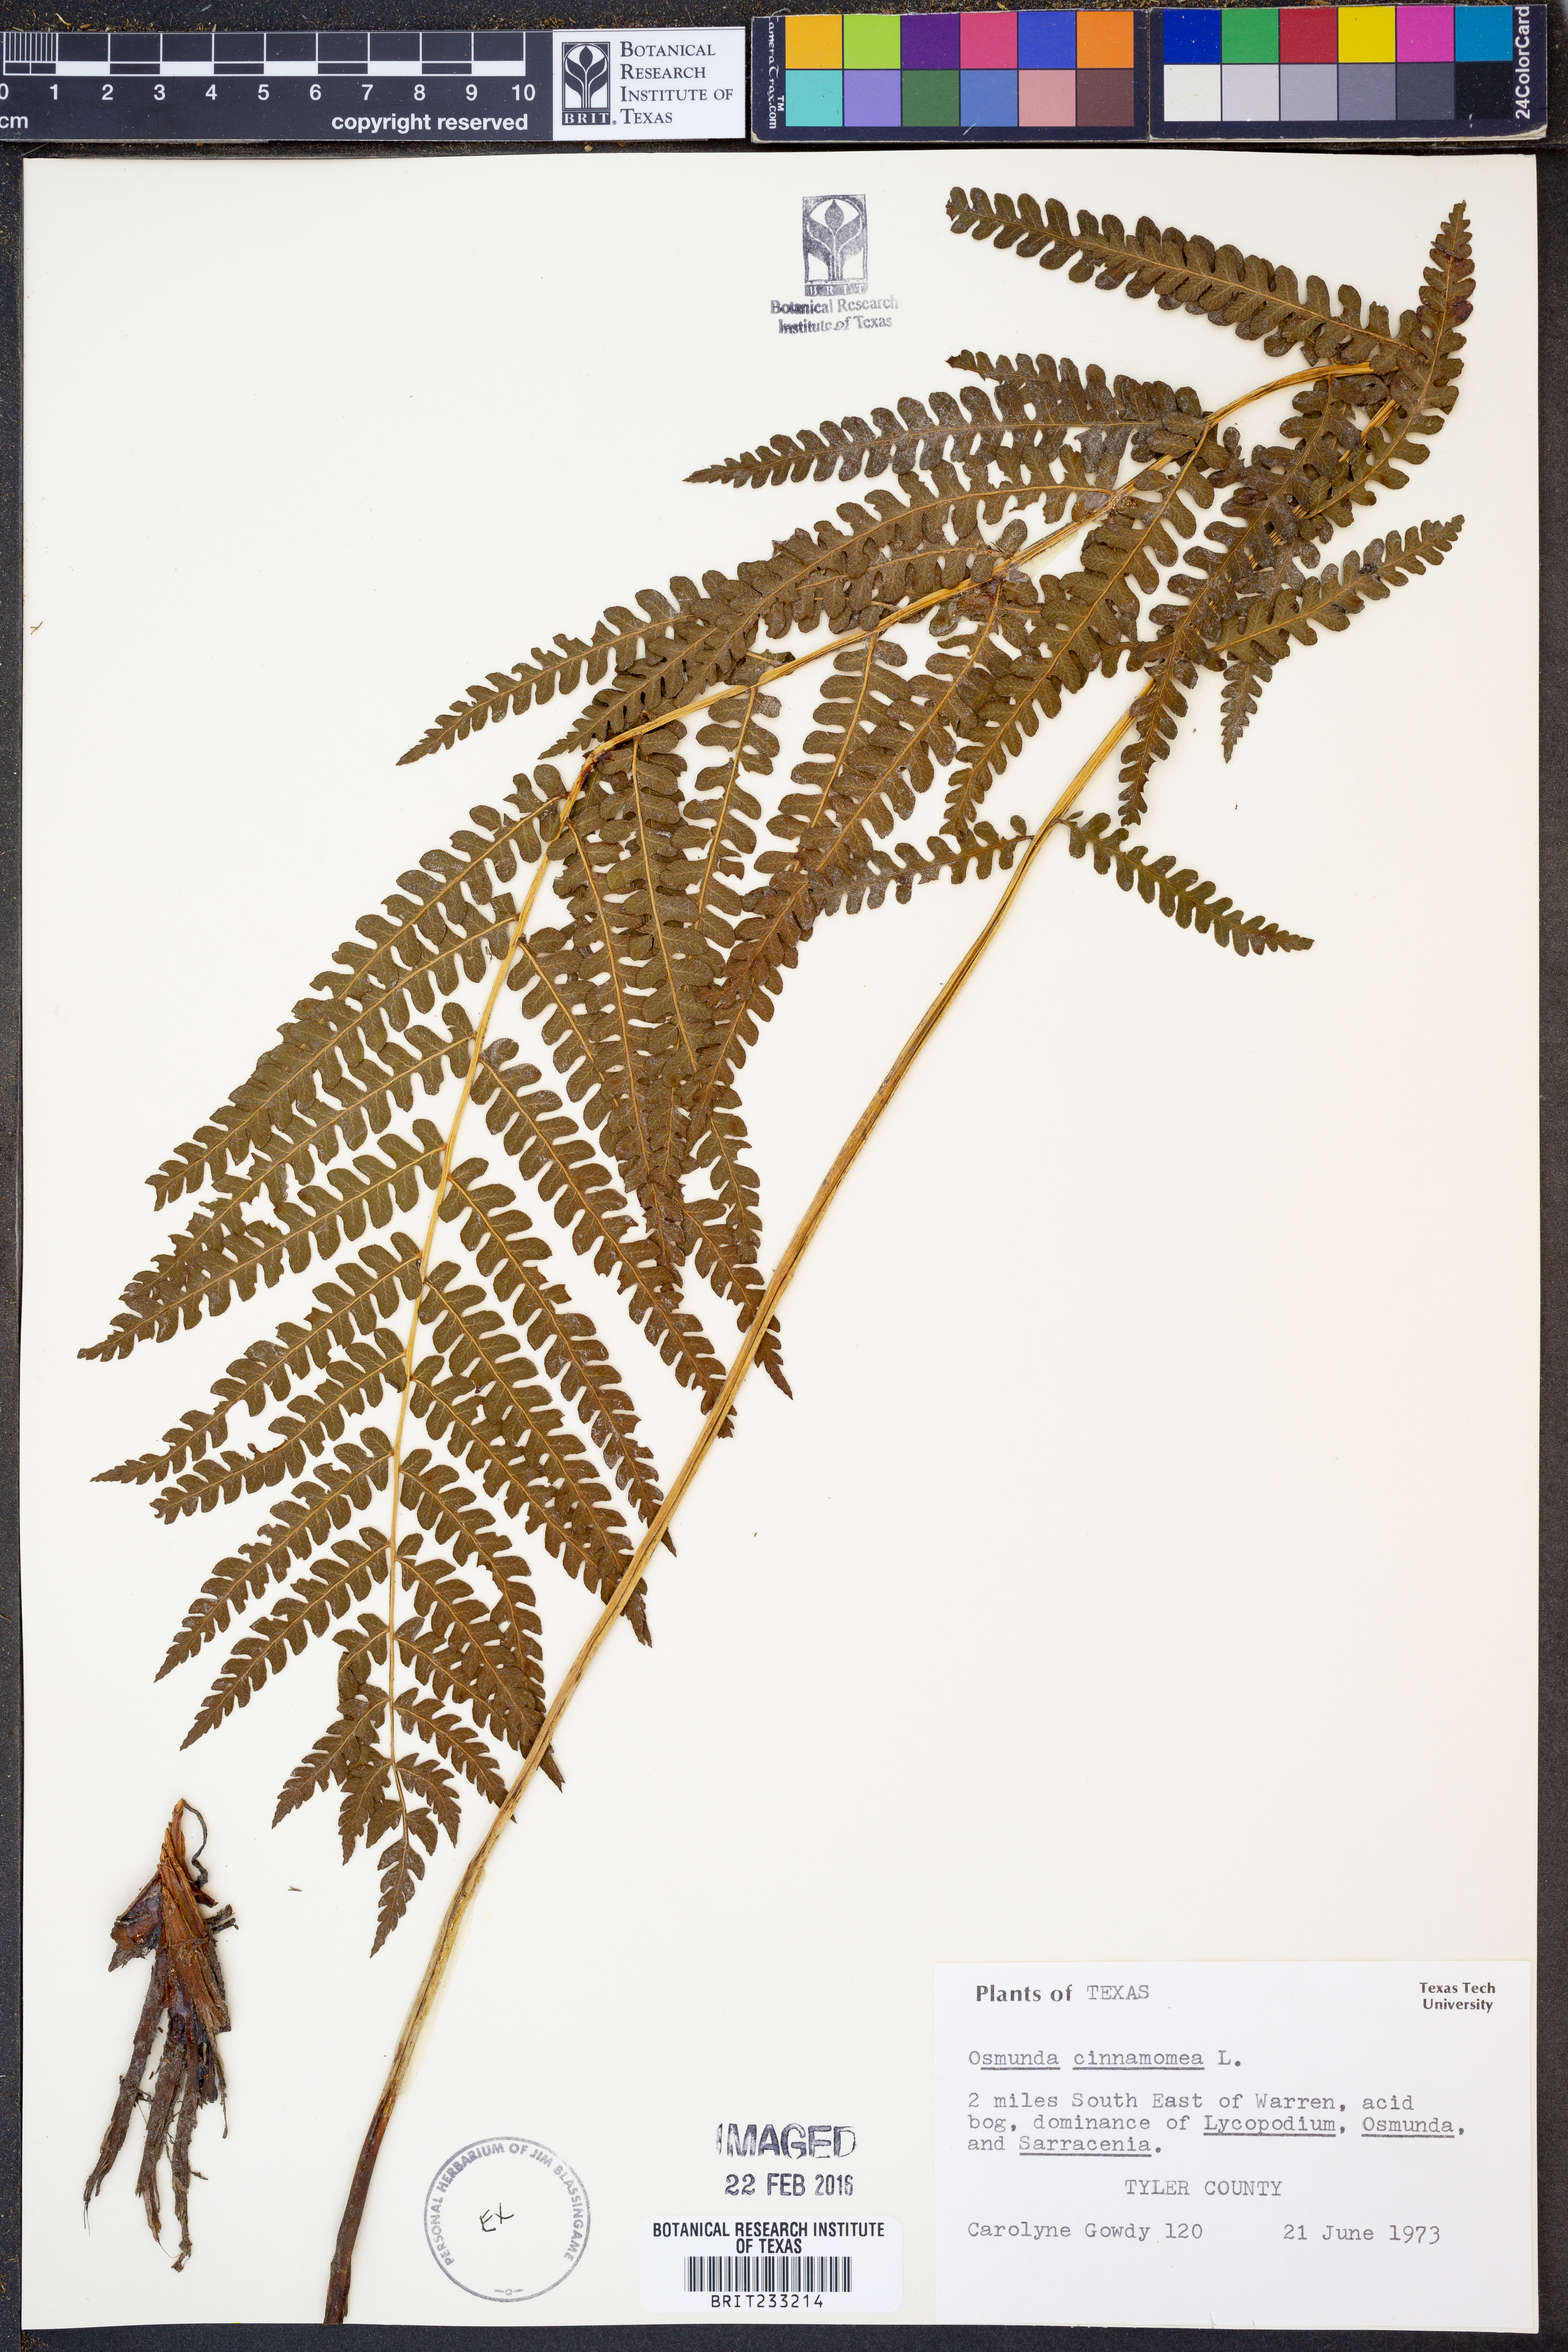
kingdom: Plantae
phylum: Tracheophyta
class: Polypodiopsida
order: Osmundales
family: Osmundaceae
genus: Osmundastrum
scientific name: Osmundastrum cinnamomeum
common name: Cinnamon fern
